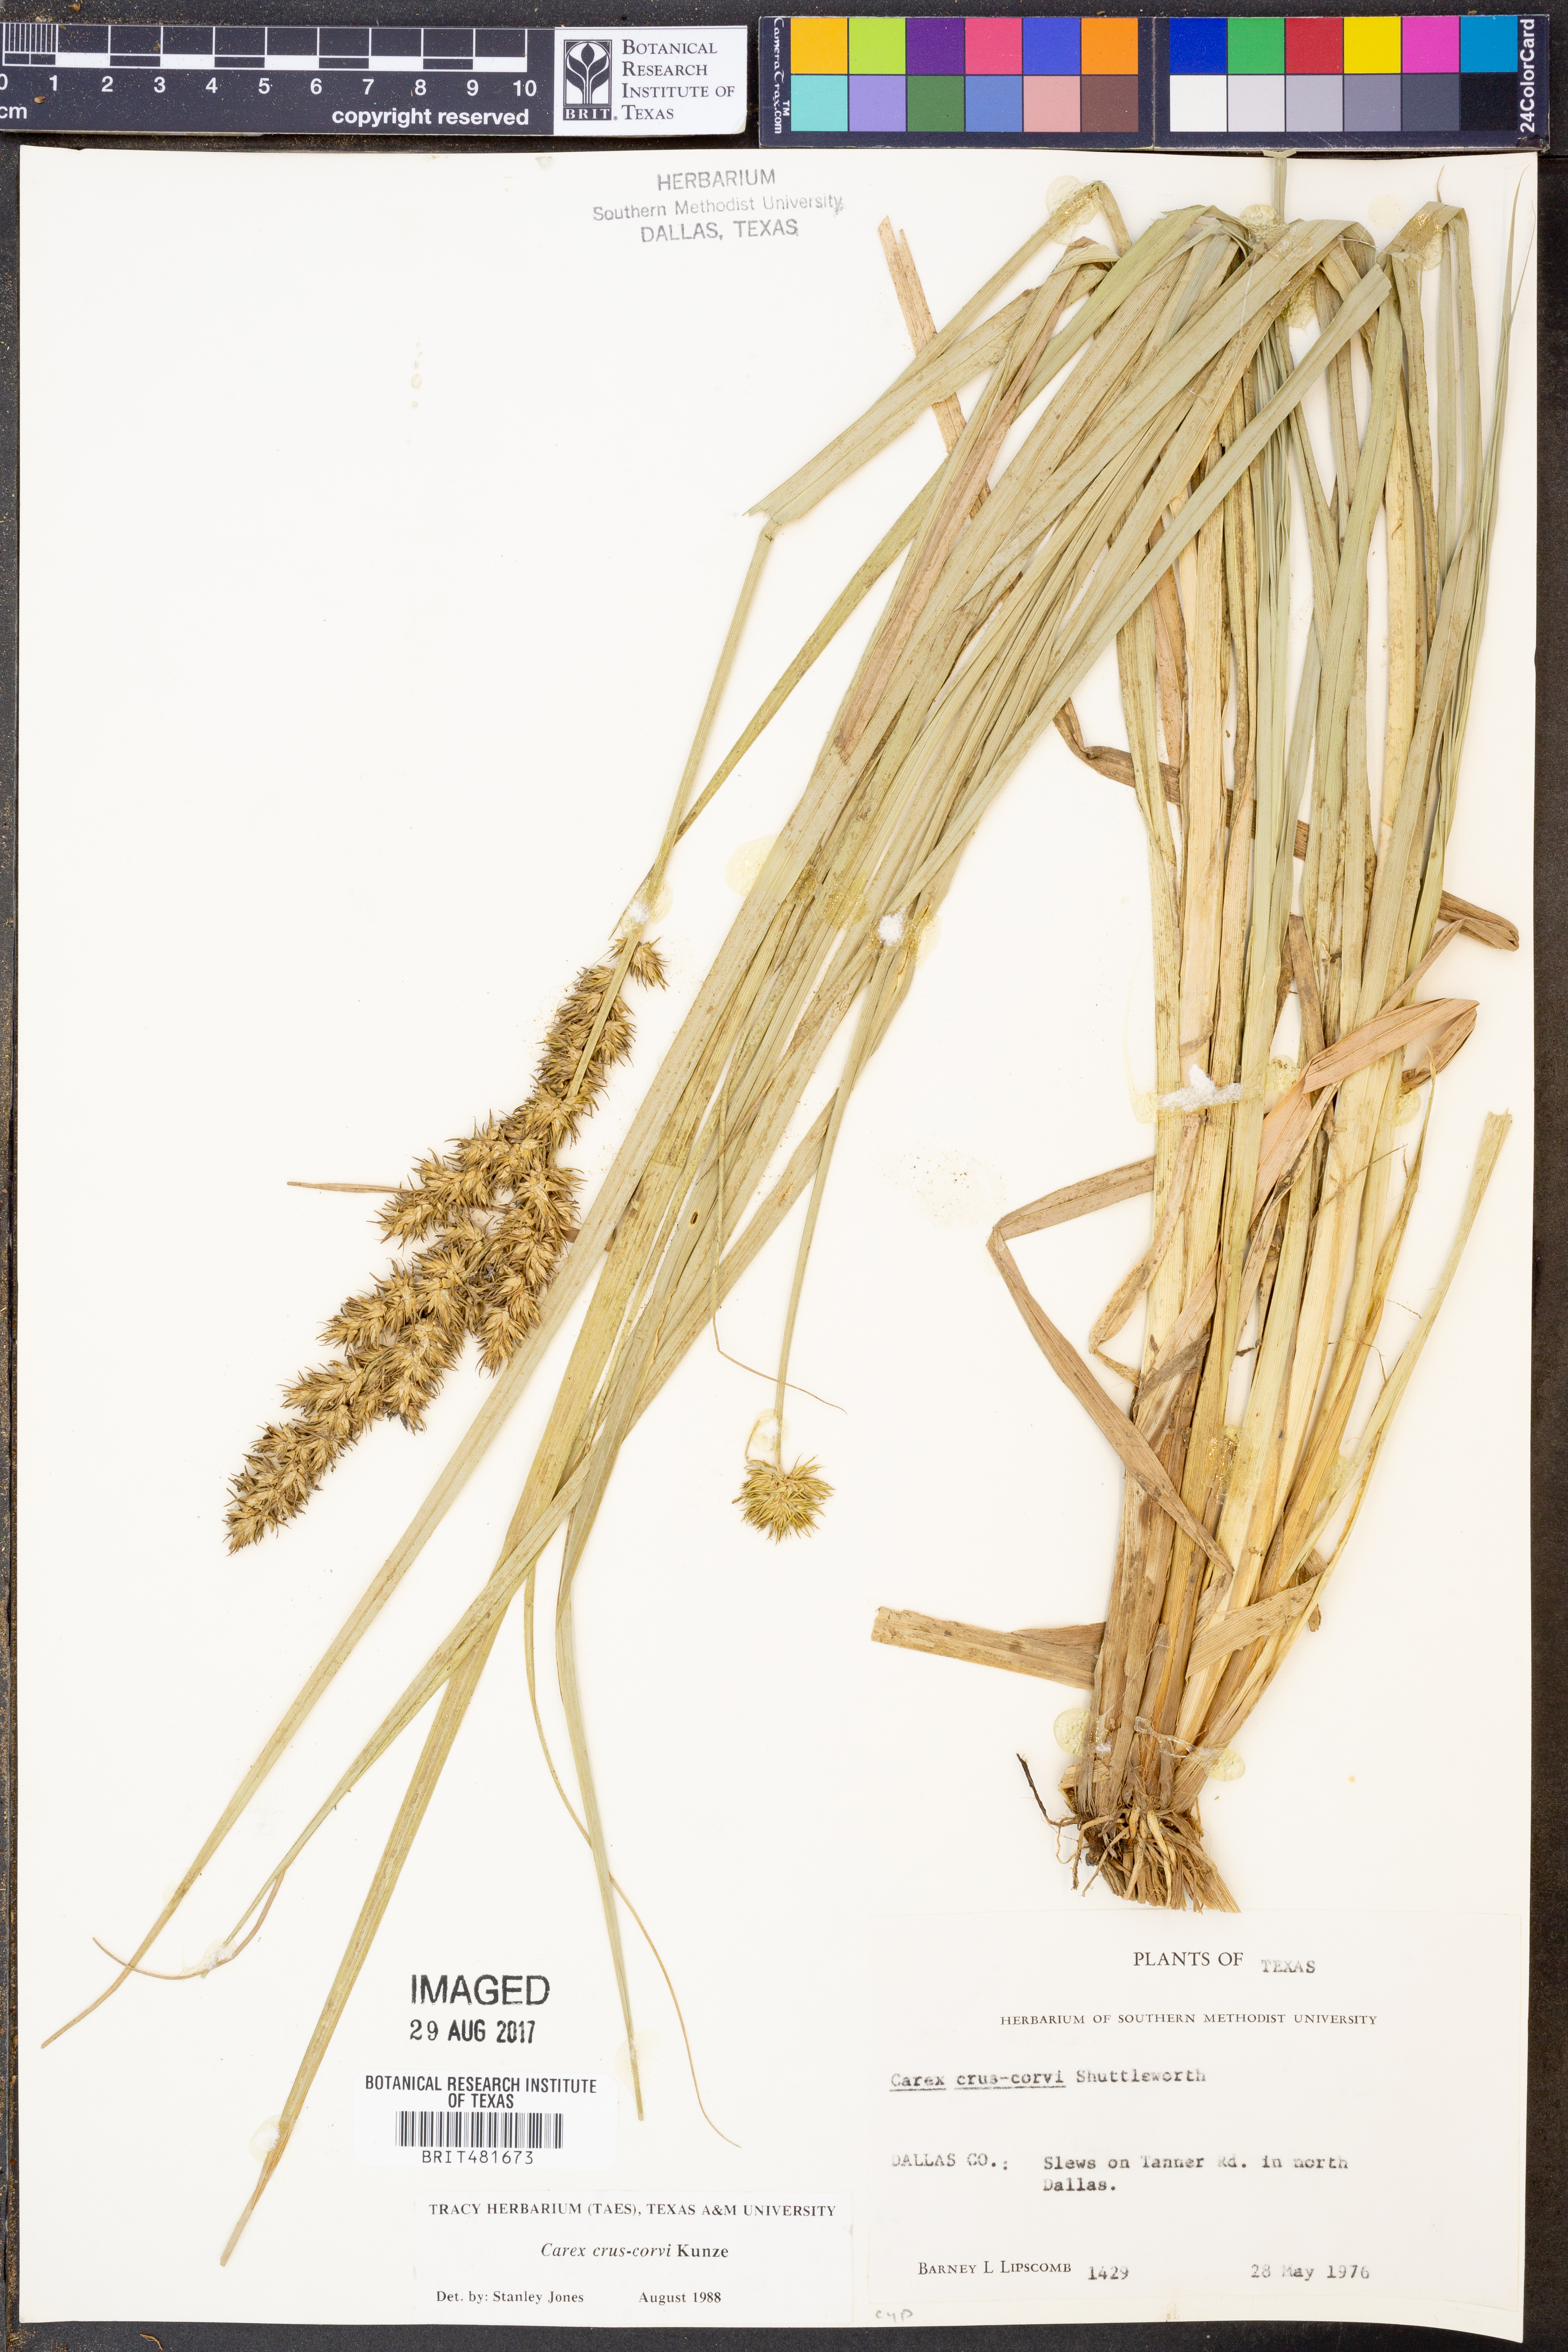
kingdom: Plantae
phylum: Tracheophyta
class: Liliopsida
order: Poales
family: Cyperaceae
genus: Carex
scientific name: Carex crus-corvi
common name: Crow-spur sedge
